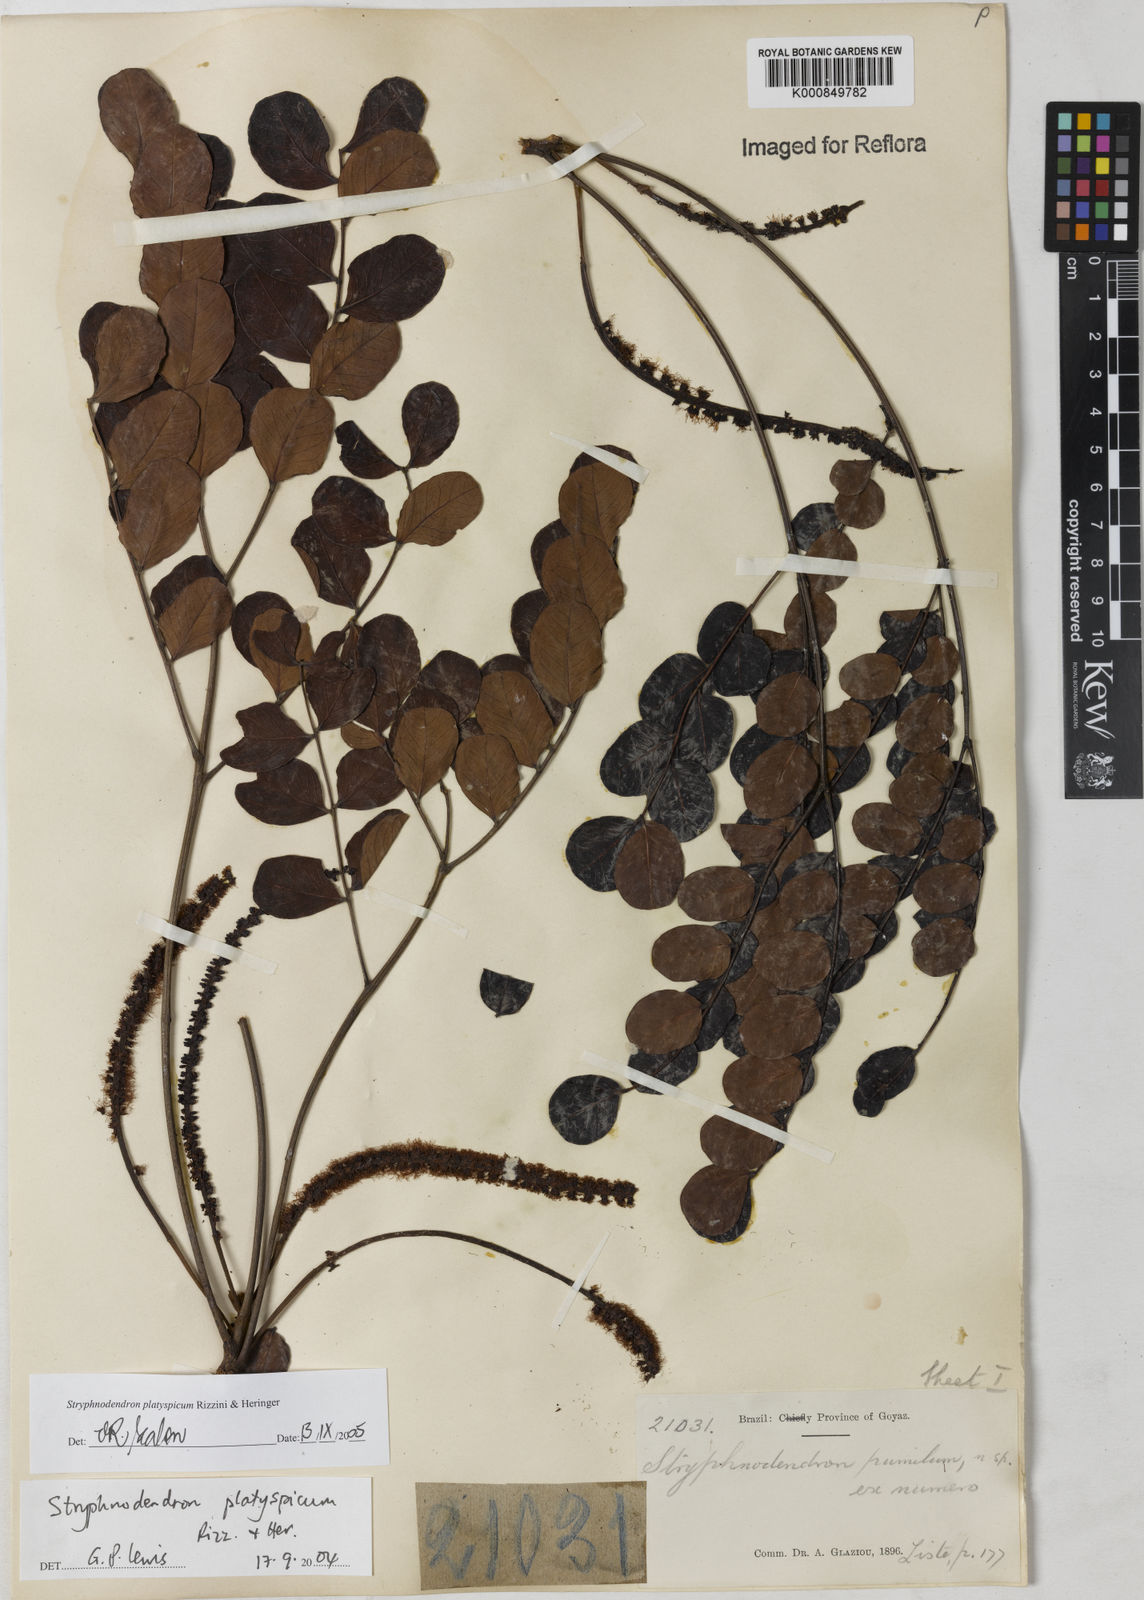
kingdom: Plantae
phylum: Tracheophyta
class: Magnoliopsida
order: Fabales
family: Fabaceae
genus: Stryphnodendron
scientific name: Stryphnodendron
